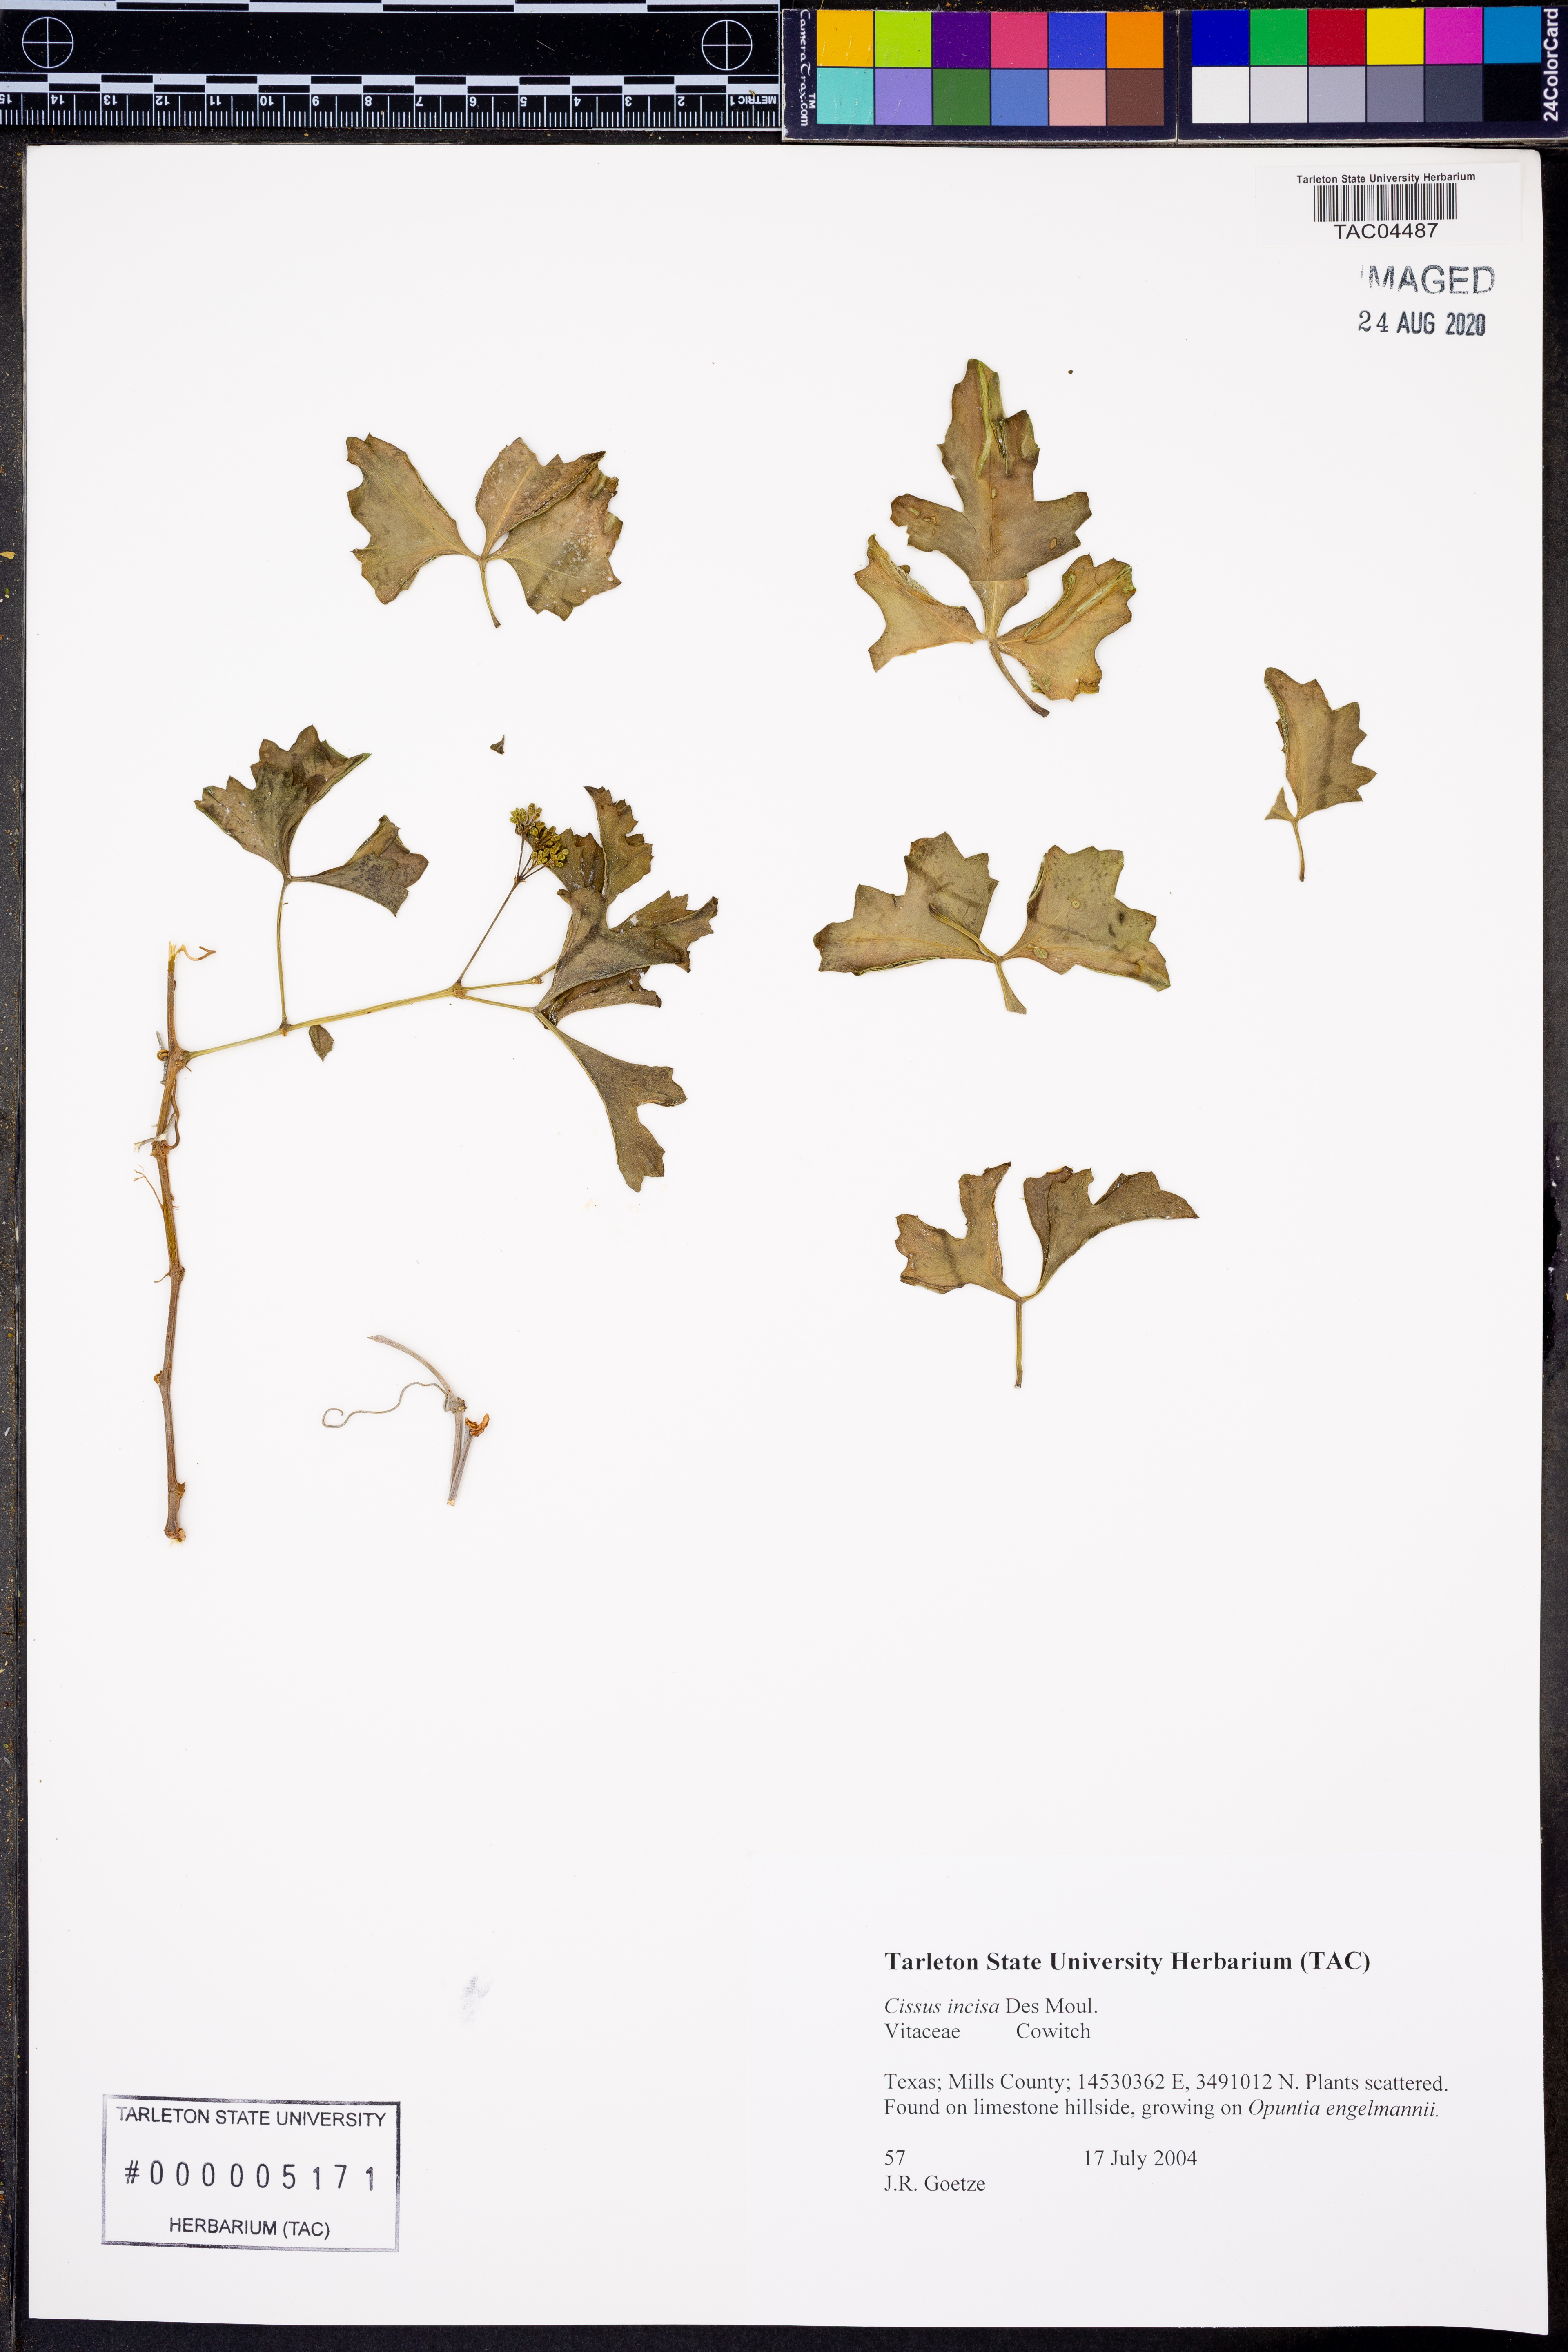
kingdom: Plantae
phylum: Tracheophyta
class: Magnoliopsida
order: Vitales
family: Vitaceae
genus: Cissus
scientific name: Cissus trifoliata
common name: Vine-sorrel
